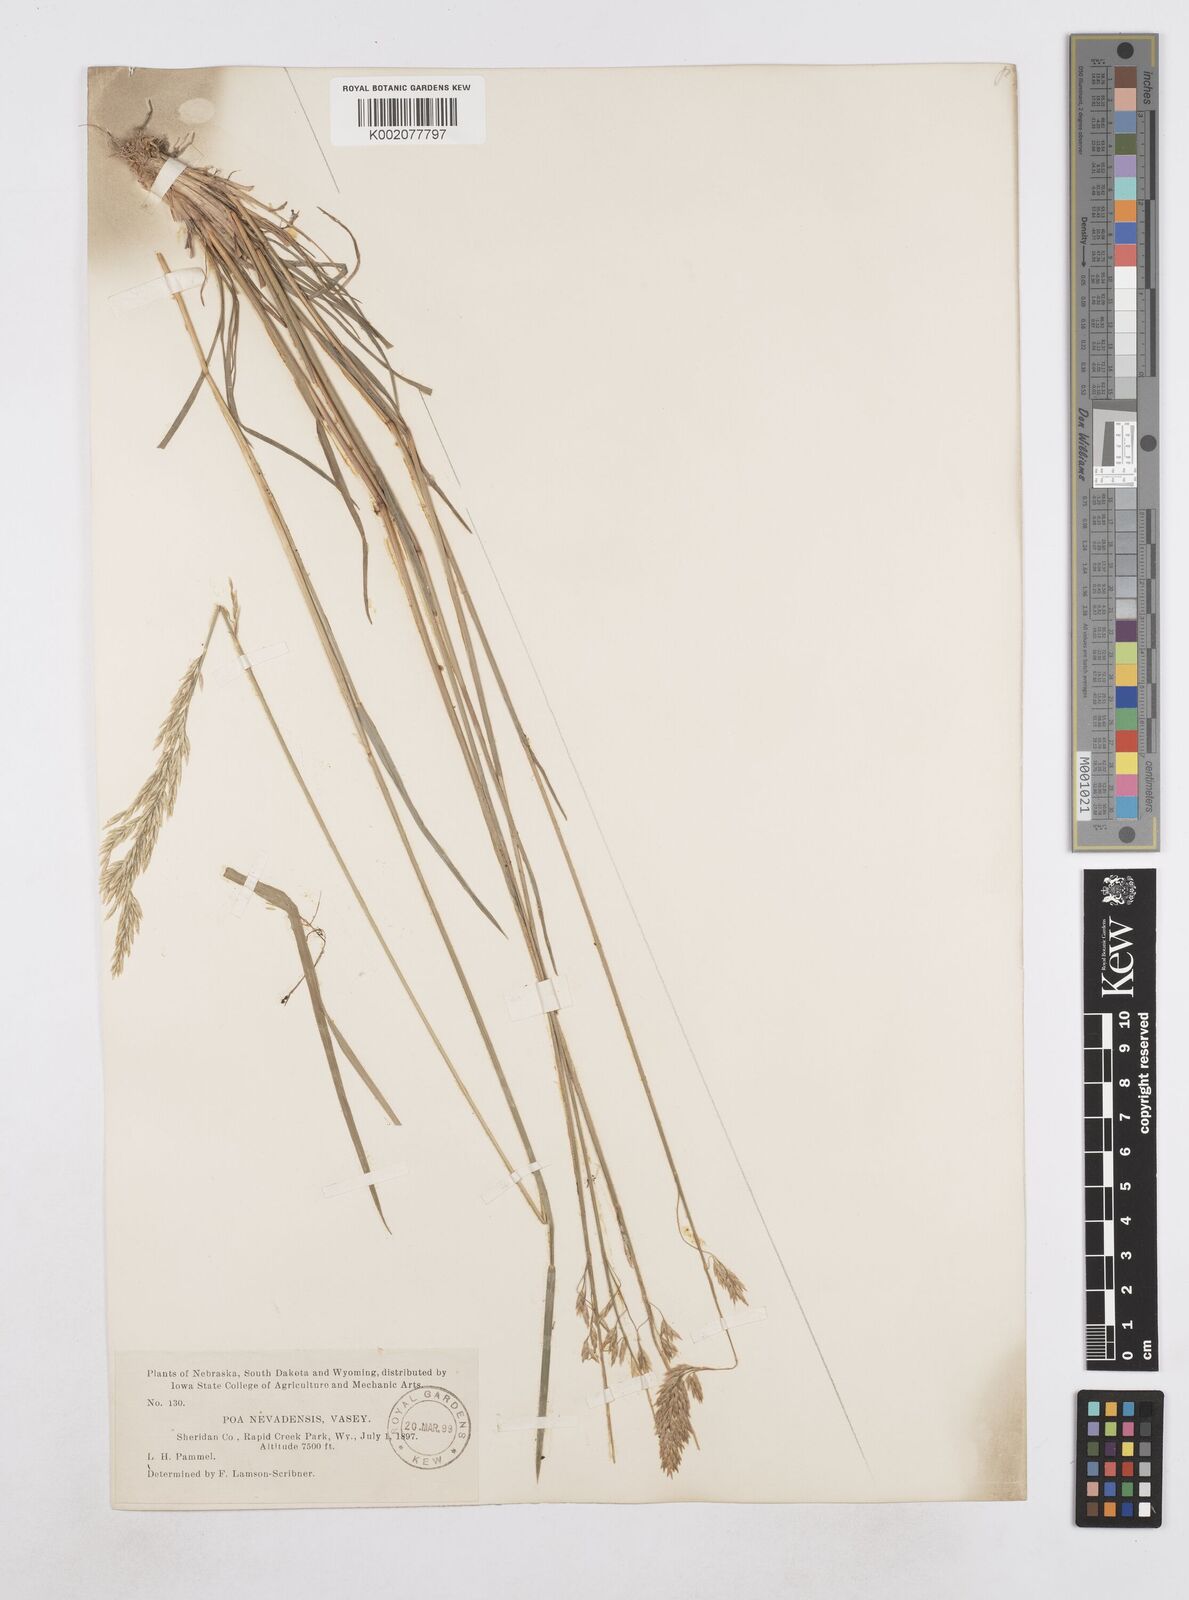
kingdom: Plantae
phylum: Tracheophyta
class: Liliopsida
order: Poales
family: Poaceae
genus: Poa
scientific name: Poa secunda
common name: Sandberg bluegrass
